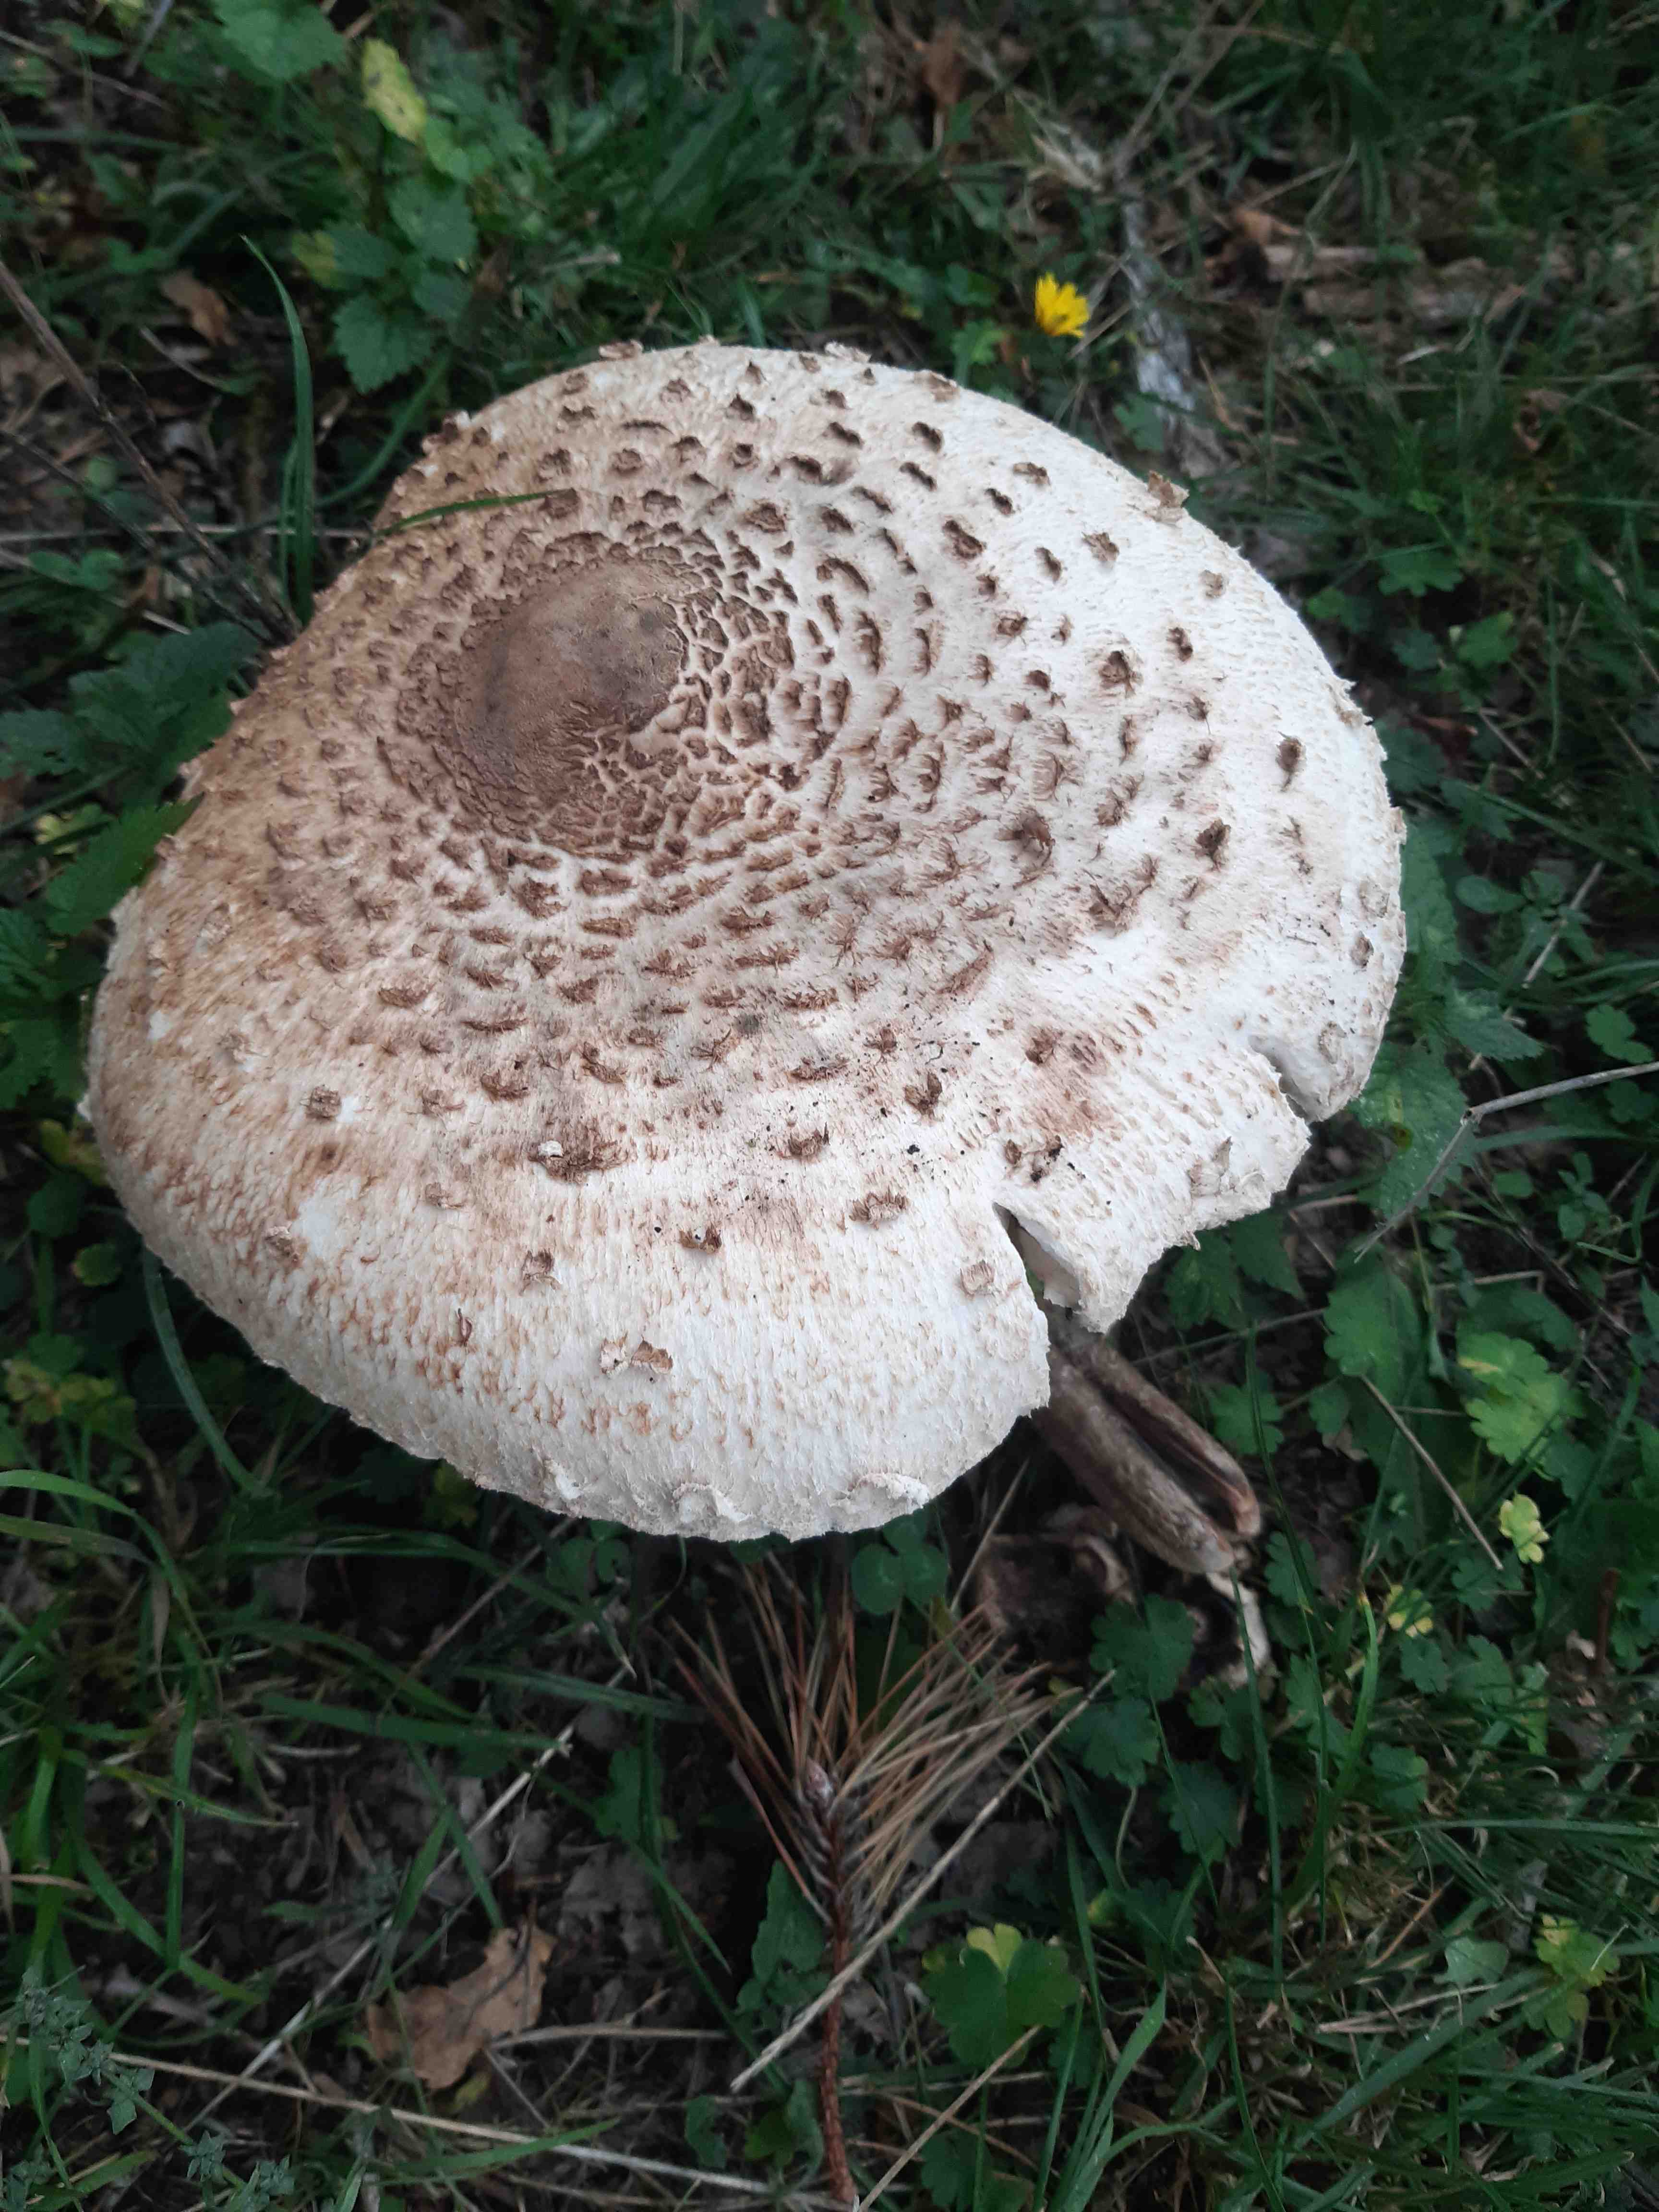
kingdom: Fungi
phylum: Basidiomycota
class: Agaricomycetes
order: Agaricales
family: Agaricaceae
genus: Macrolepiota
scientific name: Macrolepiota procera
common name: stor kæmpeparasolhat
